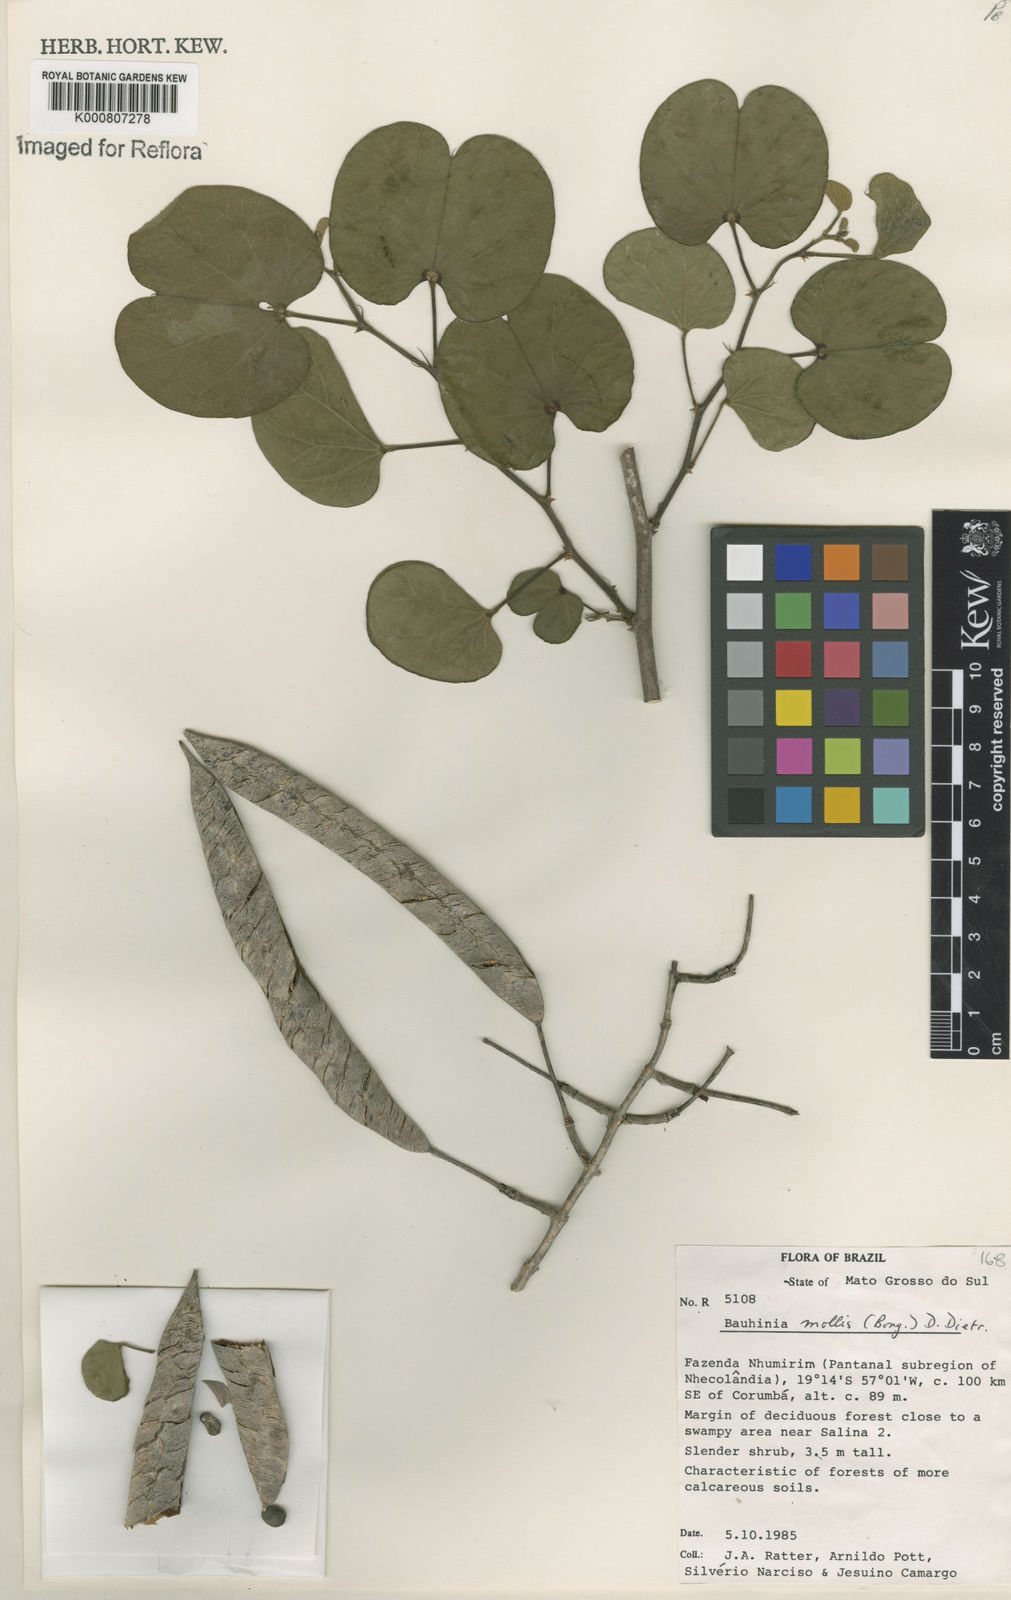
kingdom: Plantae
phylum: Tracheophyta
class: Magnoliopsida
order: Fabales
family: Fabaceae
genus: Bauhinia
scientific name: Bauhinia mollis
